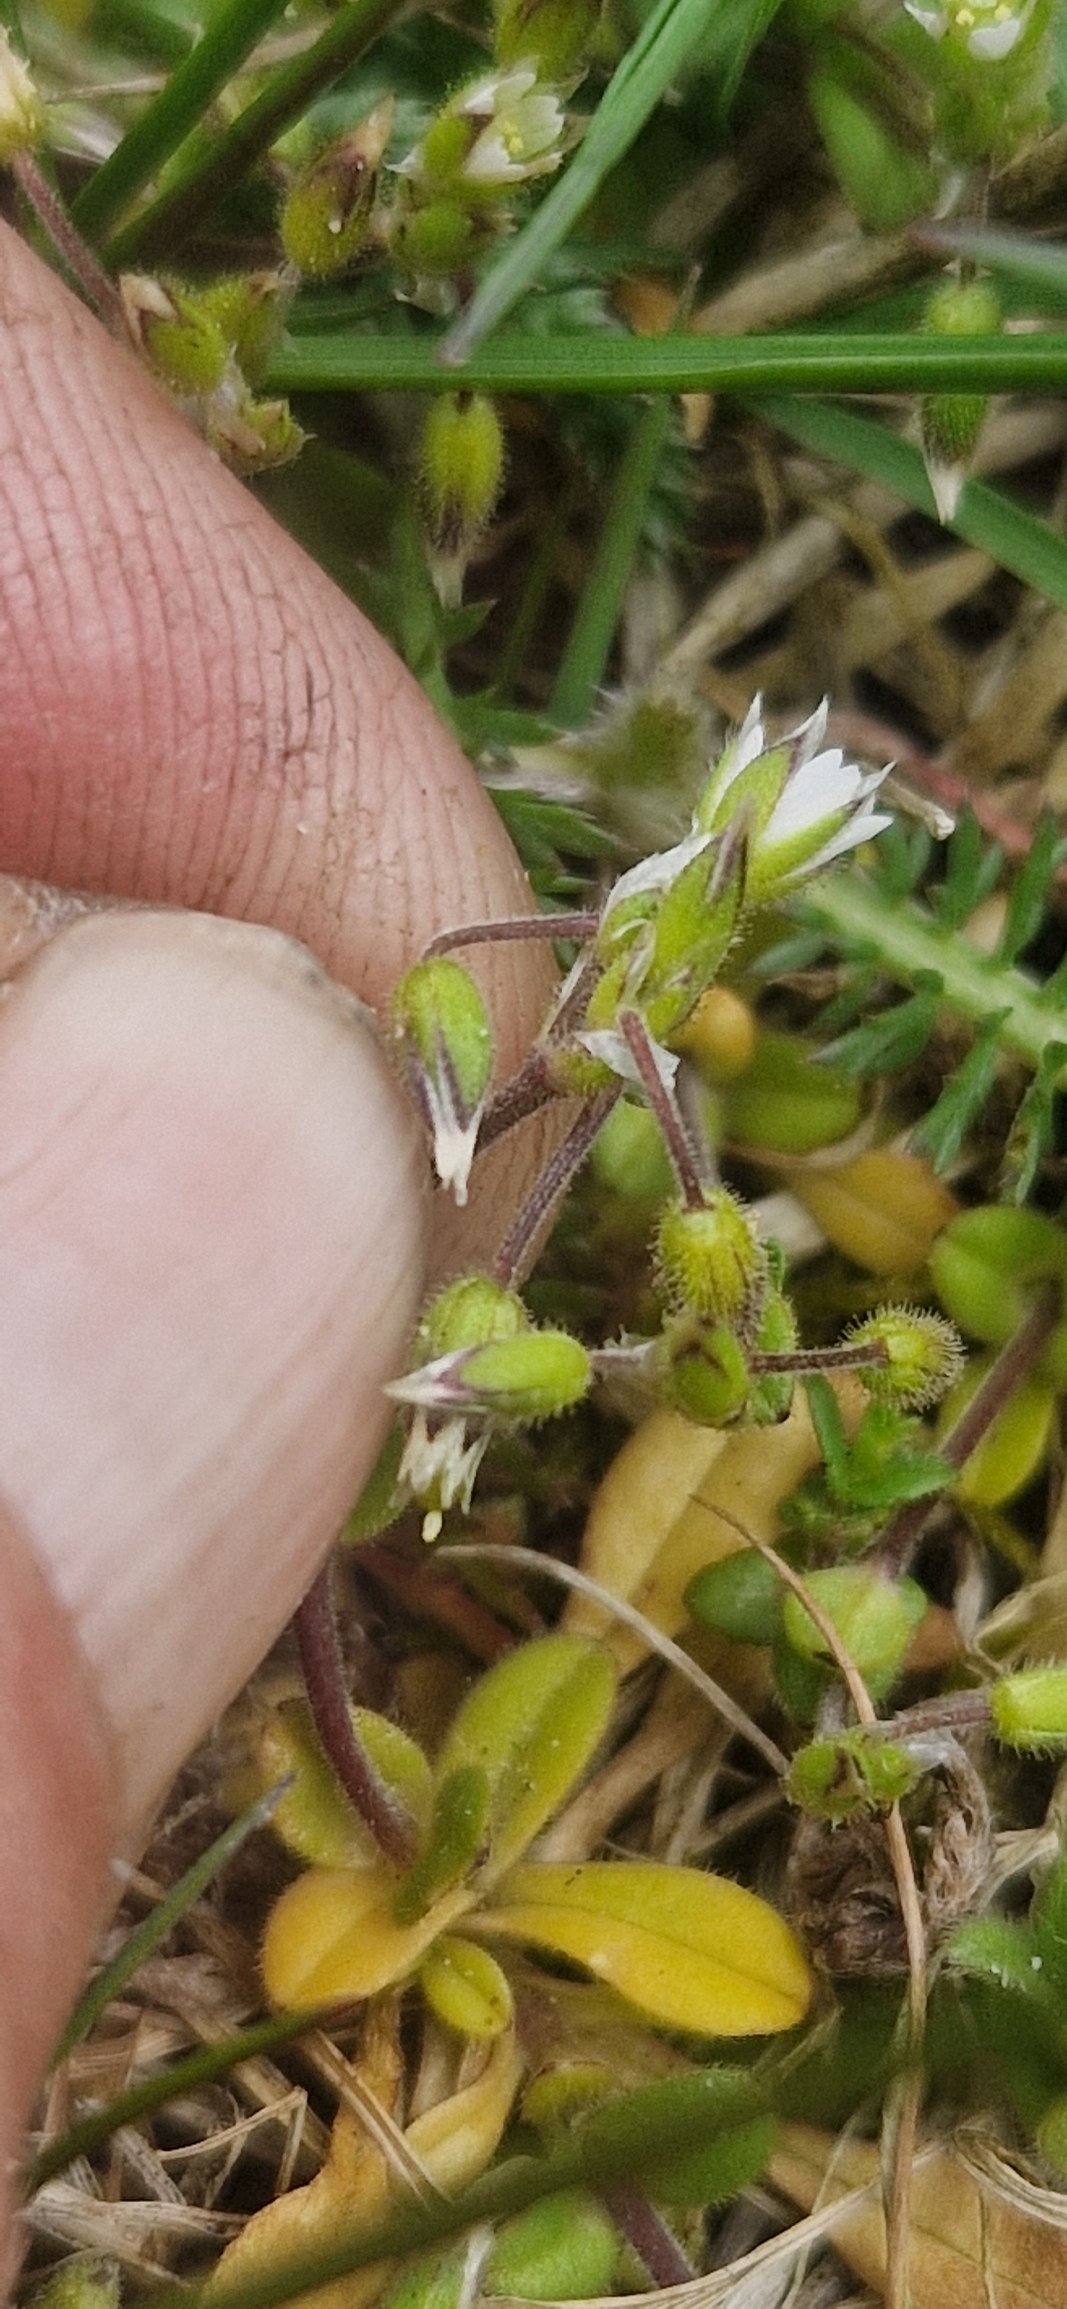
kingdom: Plantae
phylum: Tracheophyta
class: Magnoliopsida
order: Caryophyllales
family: Caryophyllaceae
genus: Cerastium
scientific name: Cerastium semidecandrum
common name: Femhannet hønsetarm
